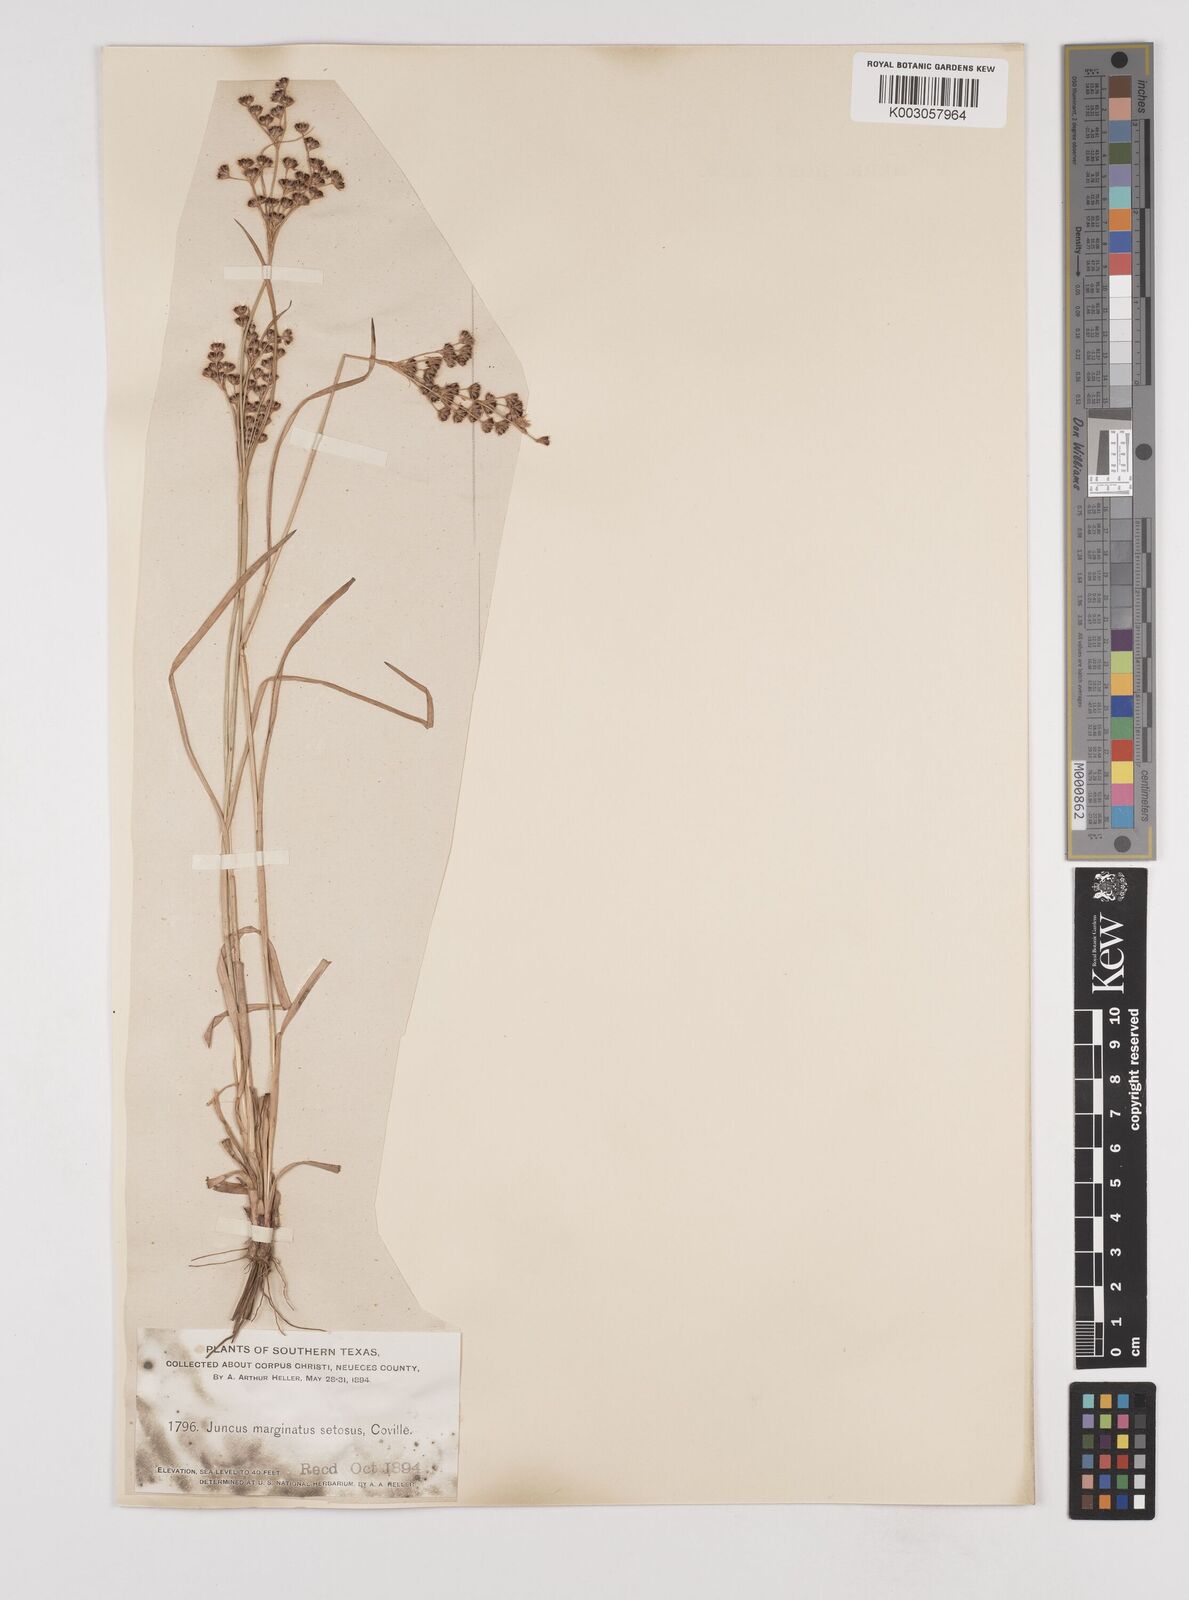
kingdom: Plantae
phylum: Tracheophyta
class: Liliopsida
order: Poales
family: Juncaceae
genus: Juncus
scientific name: Juncus marginatus
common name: Grass-leaf rush
